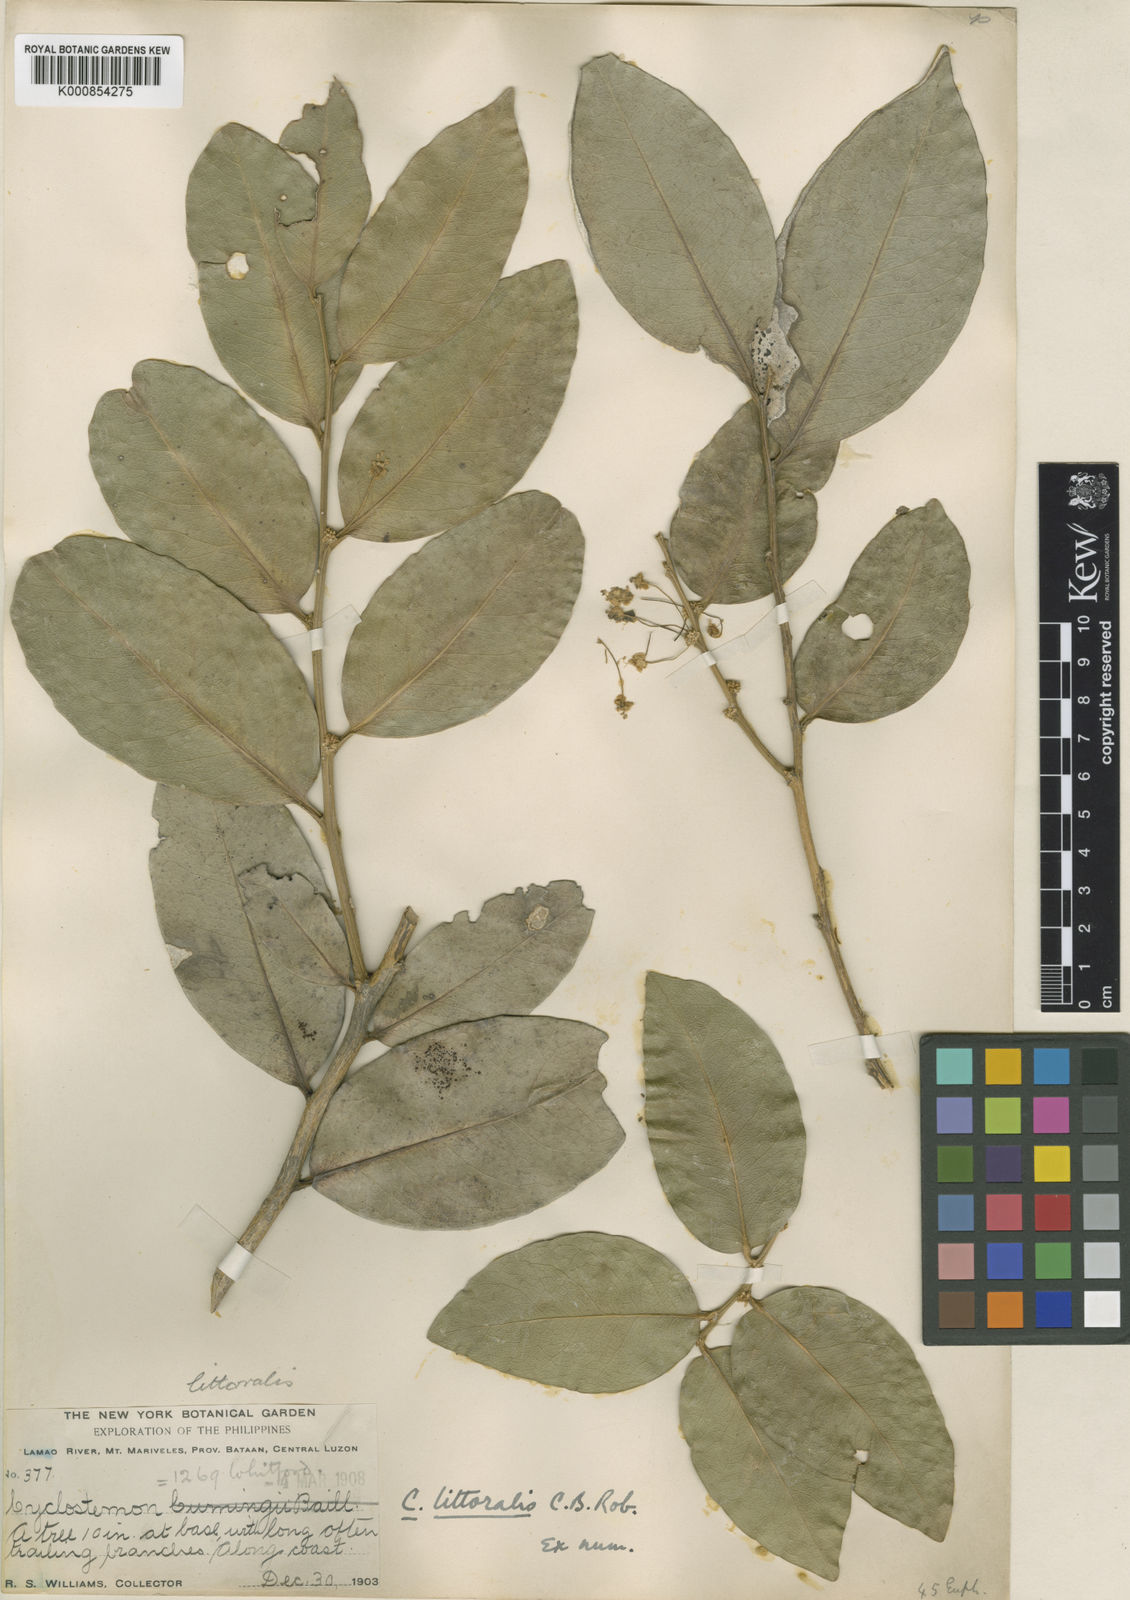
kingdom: Plantae
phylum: Tracheophyta
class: Magnoliopsida
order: Malpighiales
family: Putranjivaceae
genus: Drypetes
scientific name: Drypetes littoralis
